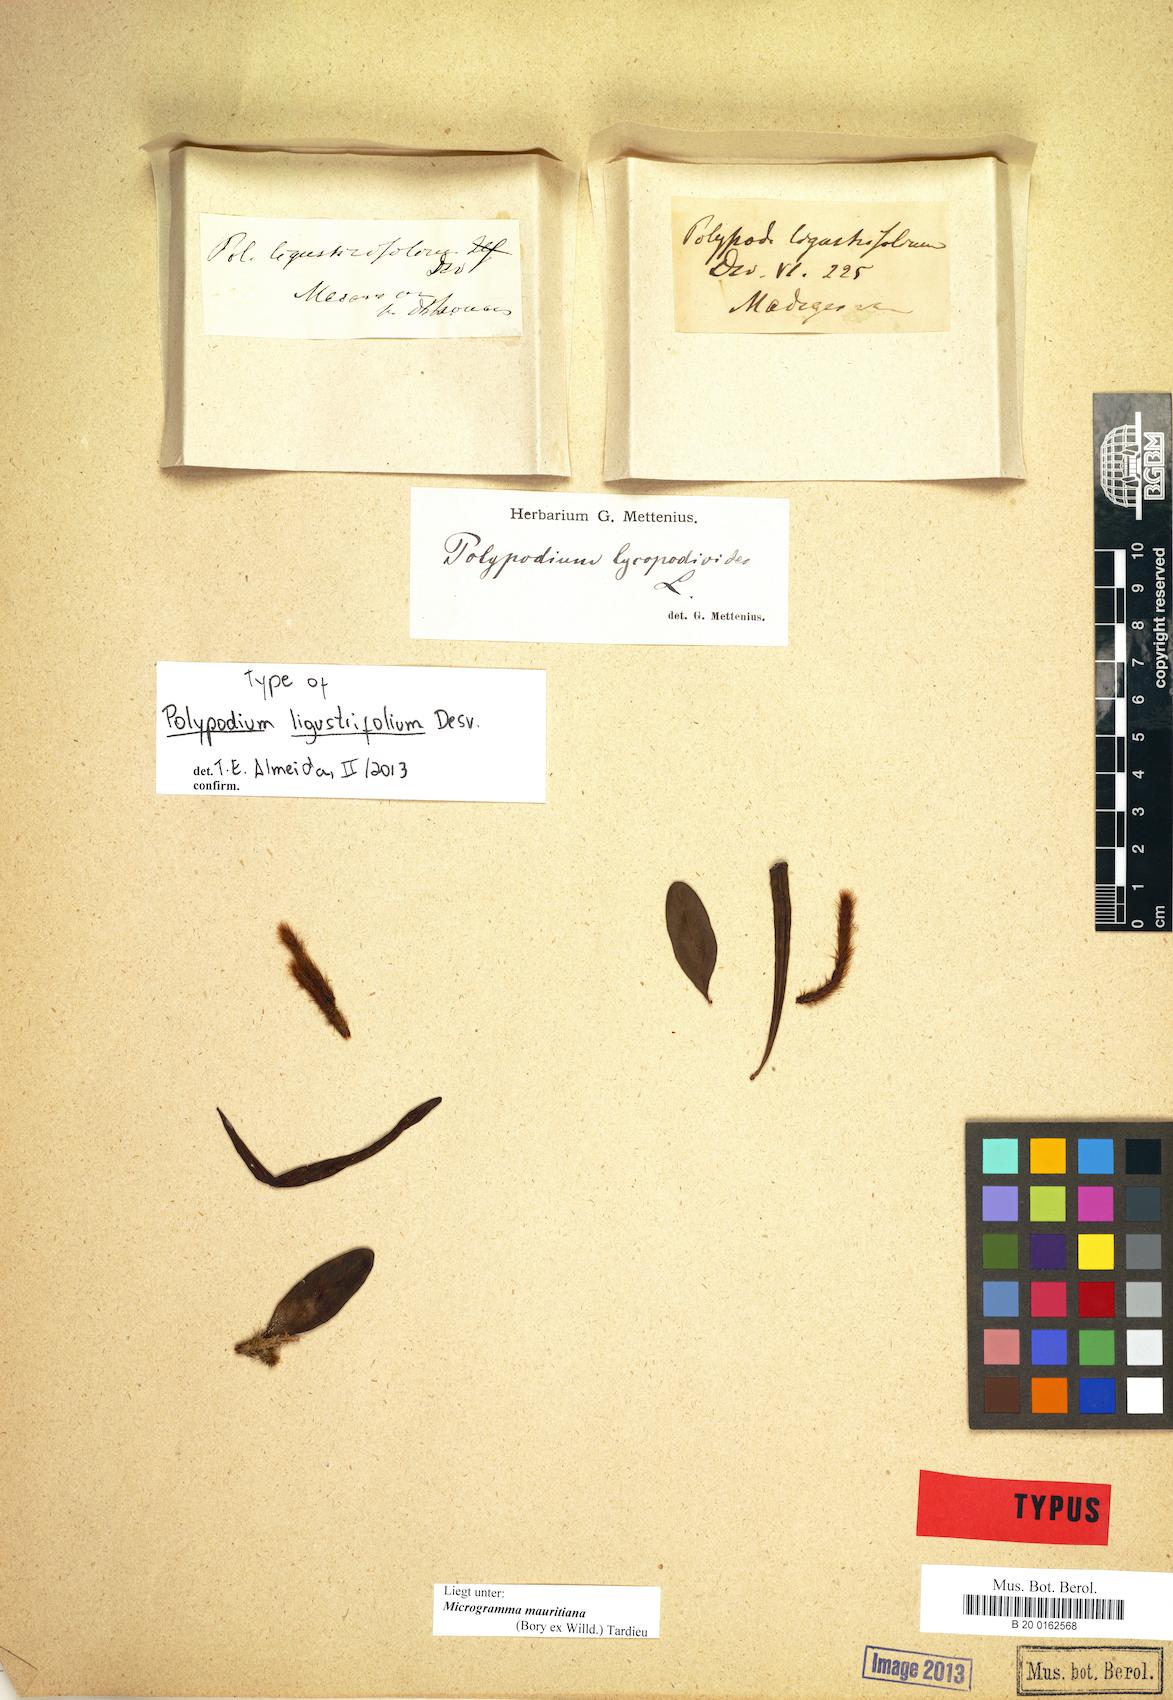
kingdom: Plantae
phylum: Tracheophyta
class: Polypodiopsida
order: Polypodiales
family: Polypodiaceae
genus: Microgramma
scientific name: Microgramma mauritiana
